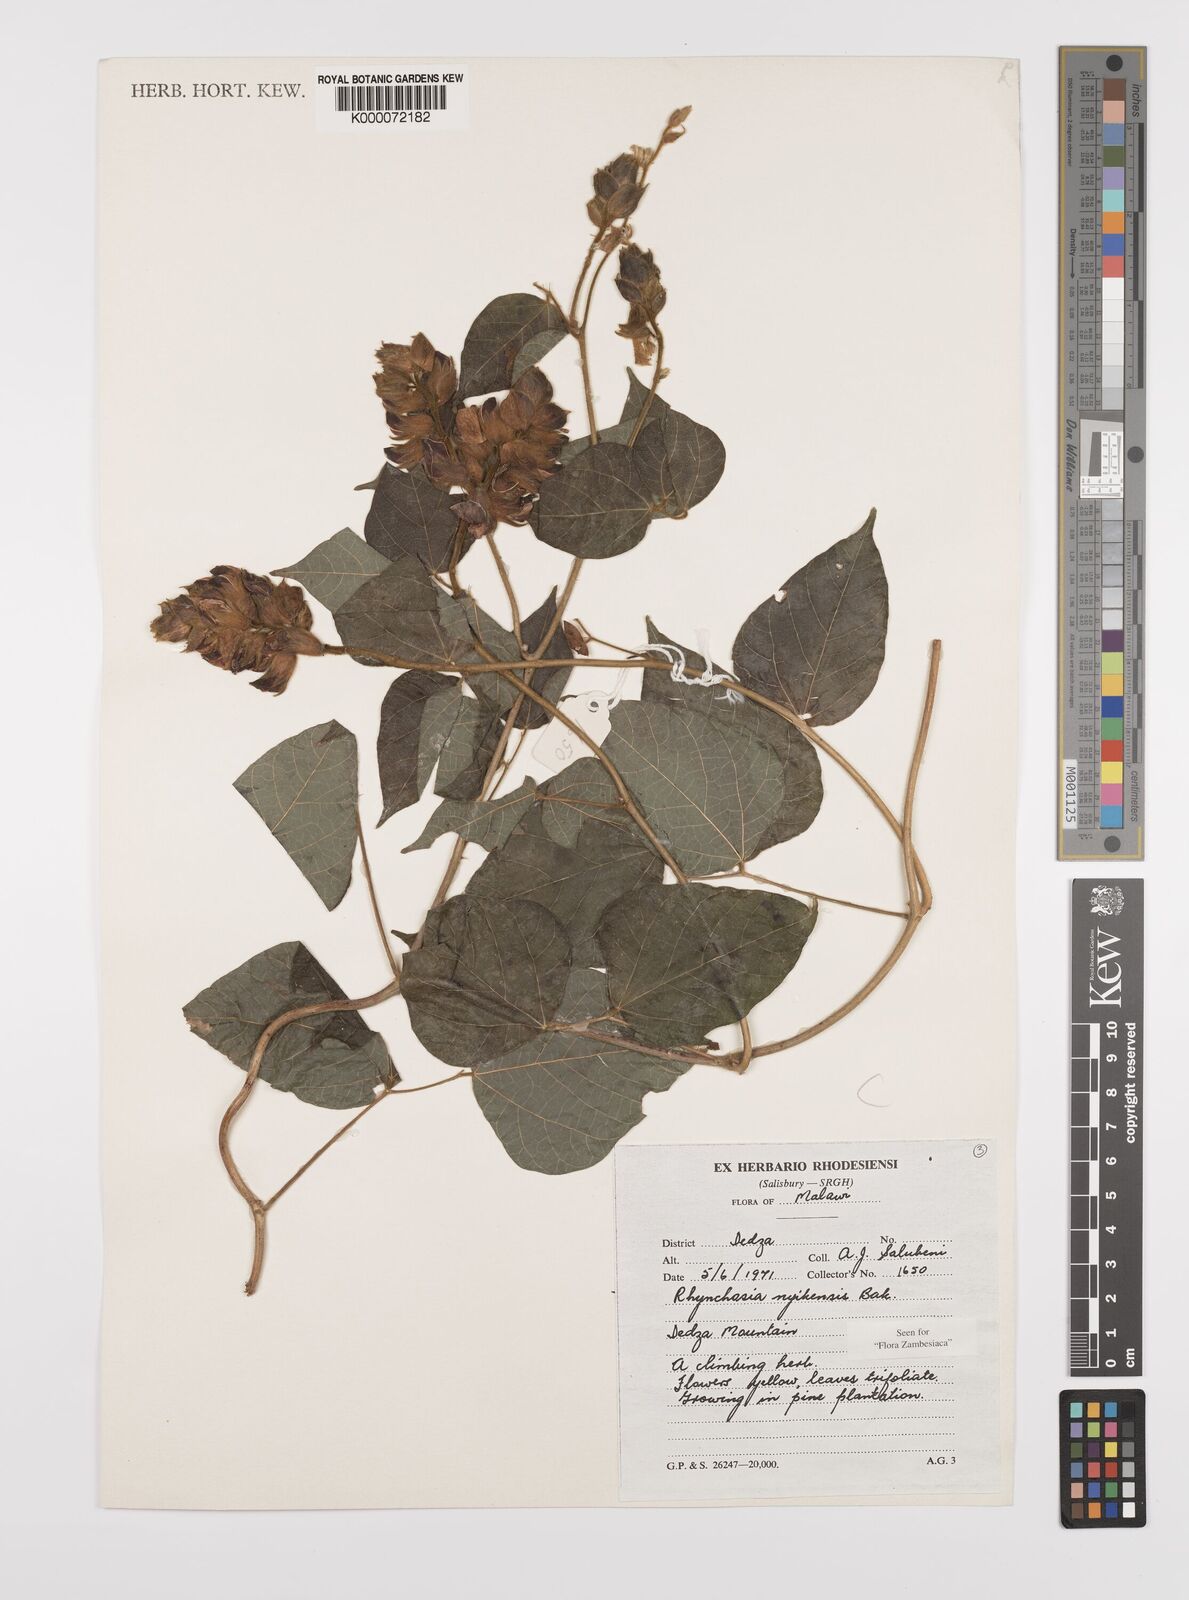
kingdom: Plantae
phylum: Tracheophyta
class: Magnoliopsida
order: Fabales
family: Fabaceae
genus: Rhynchosia
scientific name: Rhynchosia nyikensis
